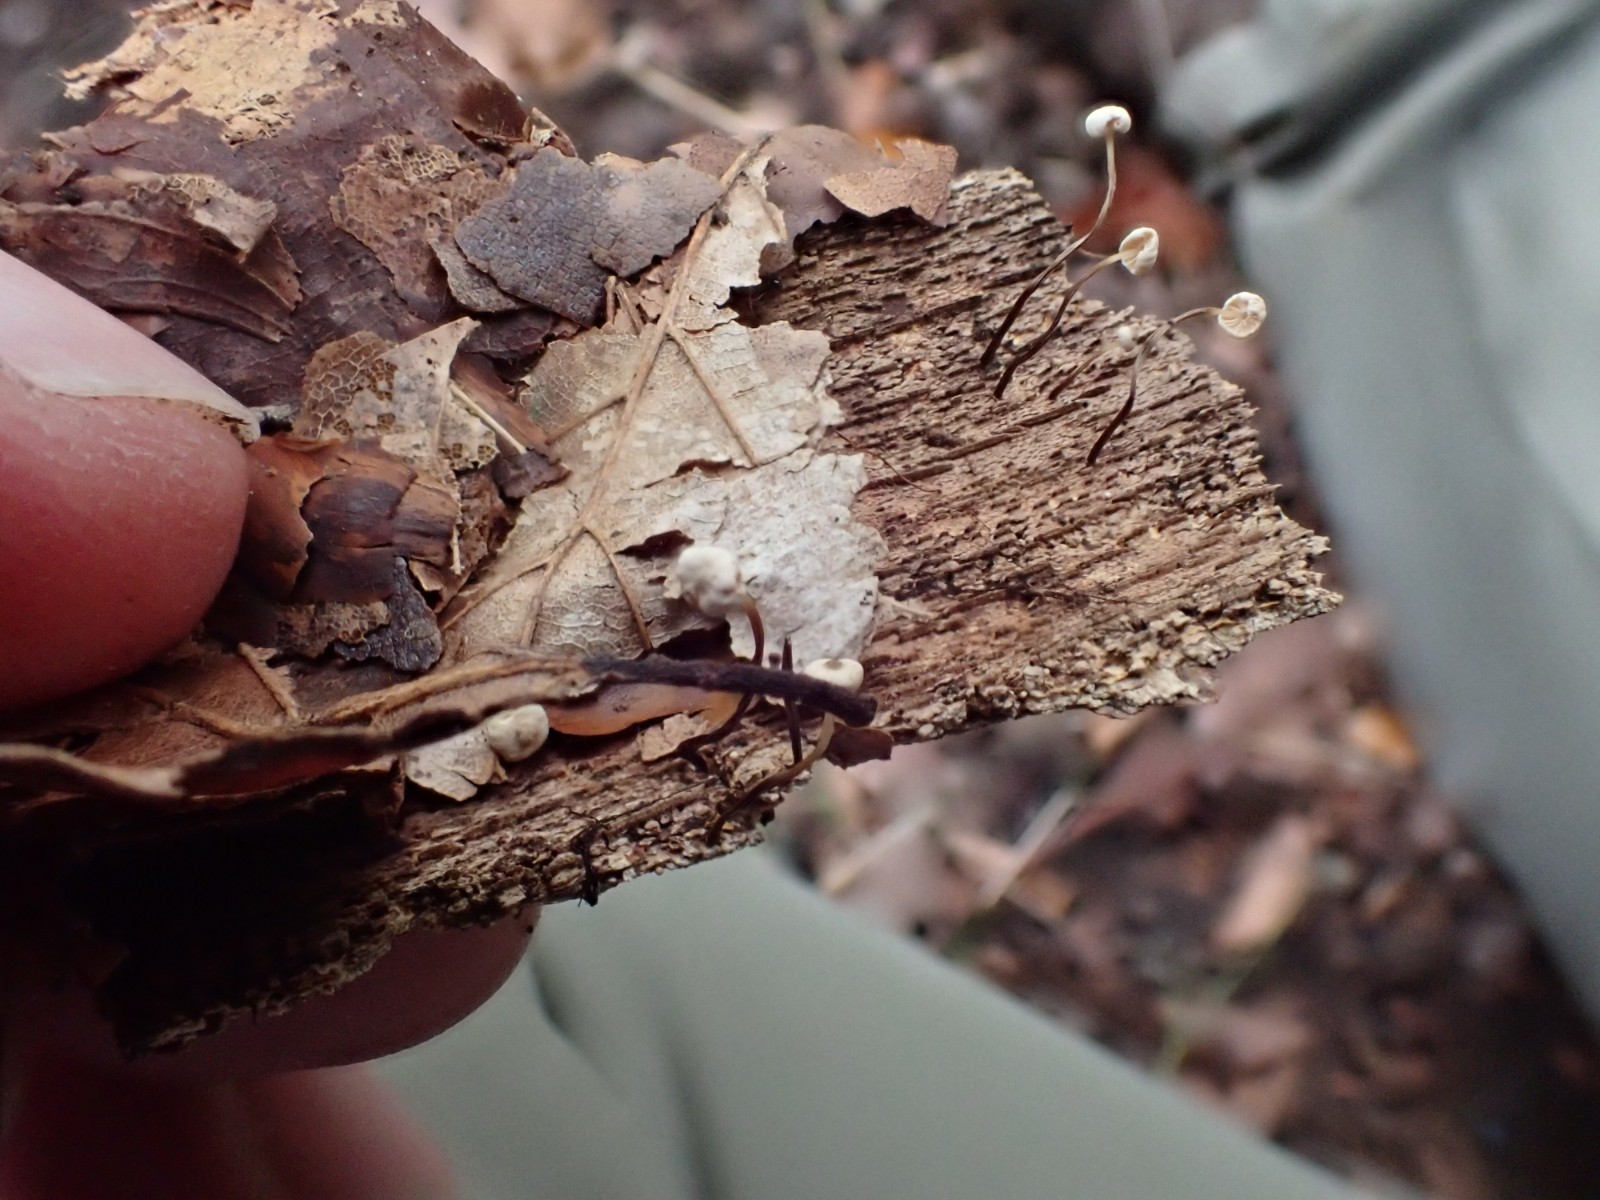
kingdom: Fungi
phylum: Basidiomycota
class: Agaricomycetes
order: Agaricales
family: Marasmiaceae
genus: Marasmius
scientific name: Marasmius rotula
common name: hjul-bruskhat
